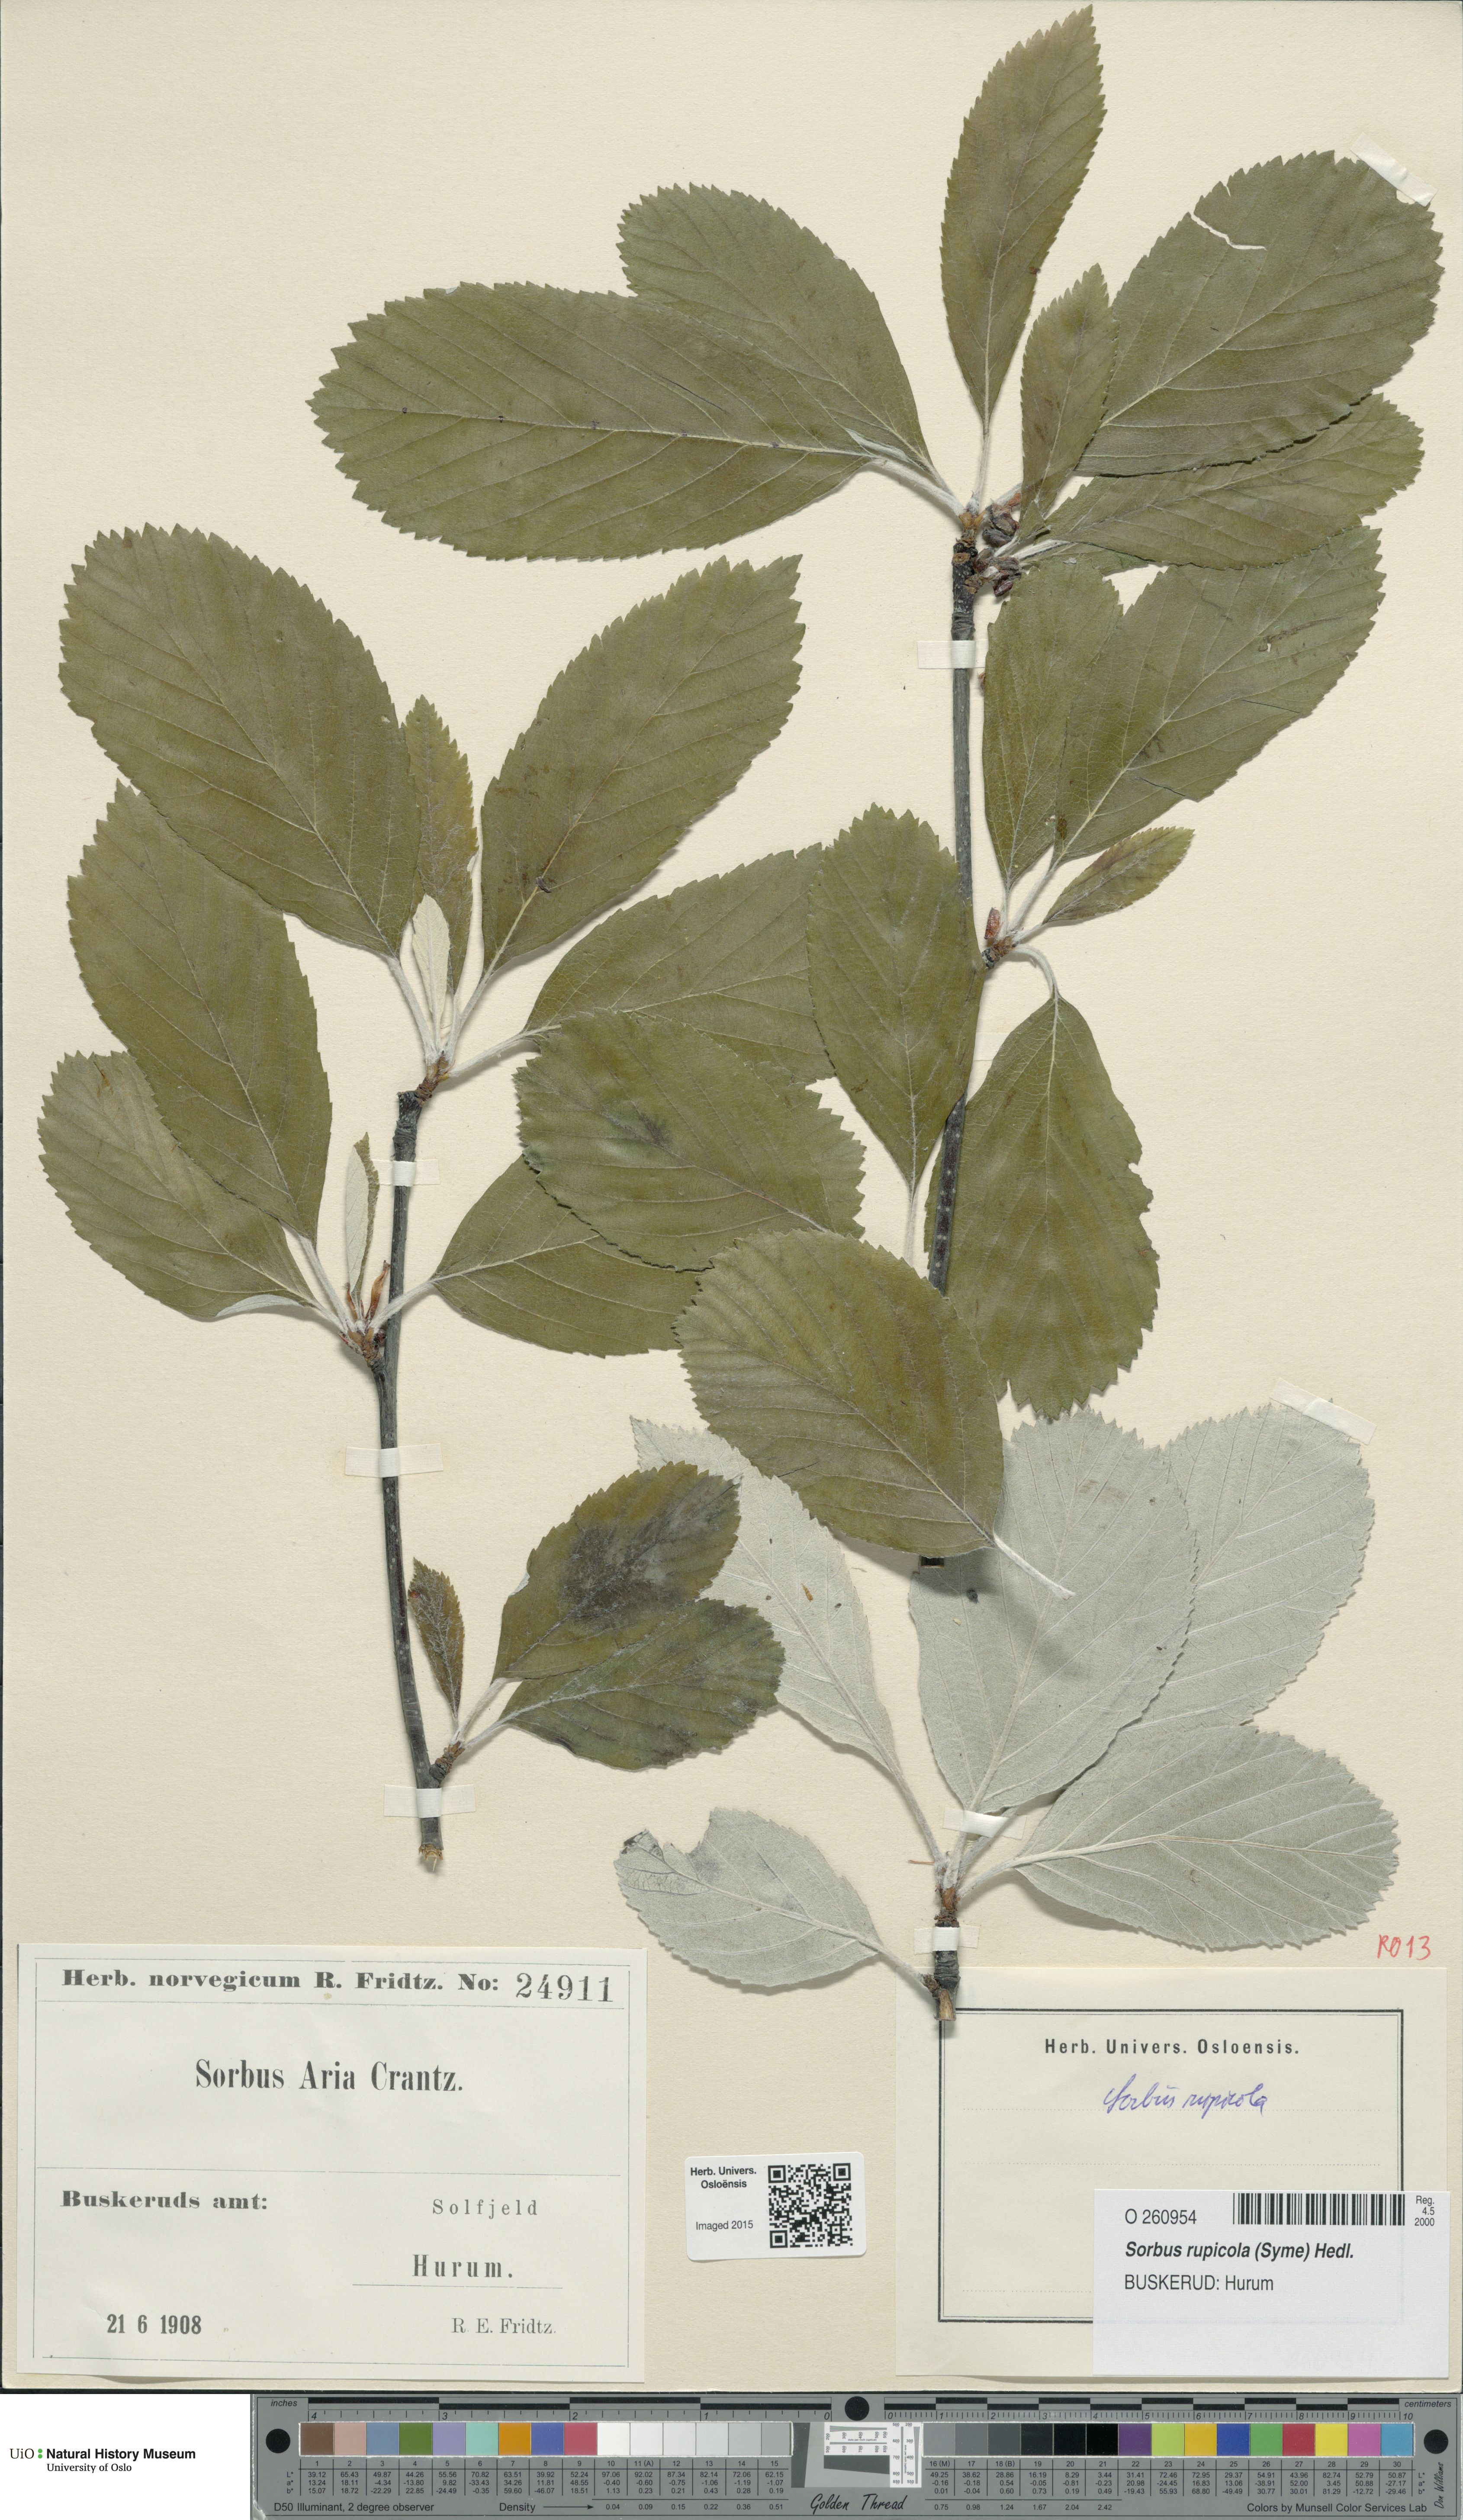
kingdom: Plantae
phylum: Tracheophyta
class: Magnoliopsida
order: Rosales
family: Rosaceae
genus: Aria
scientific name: Aria rupicola
